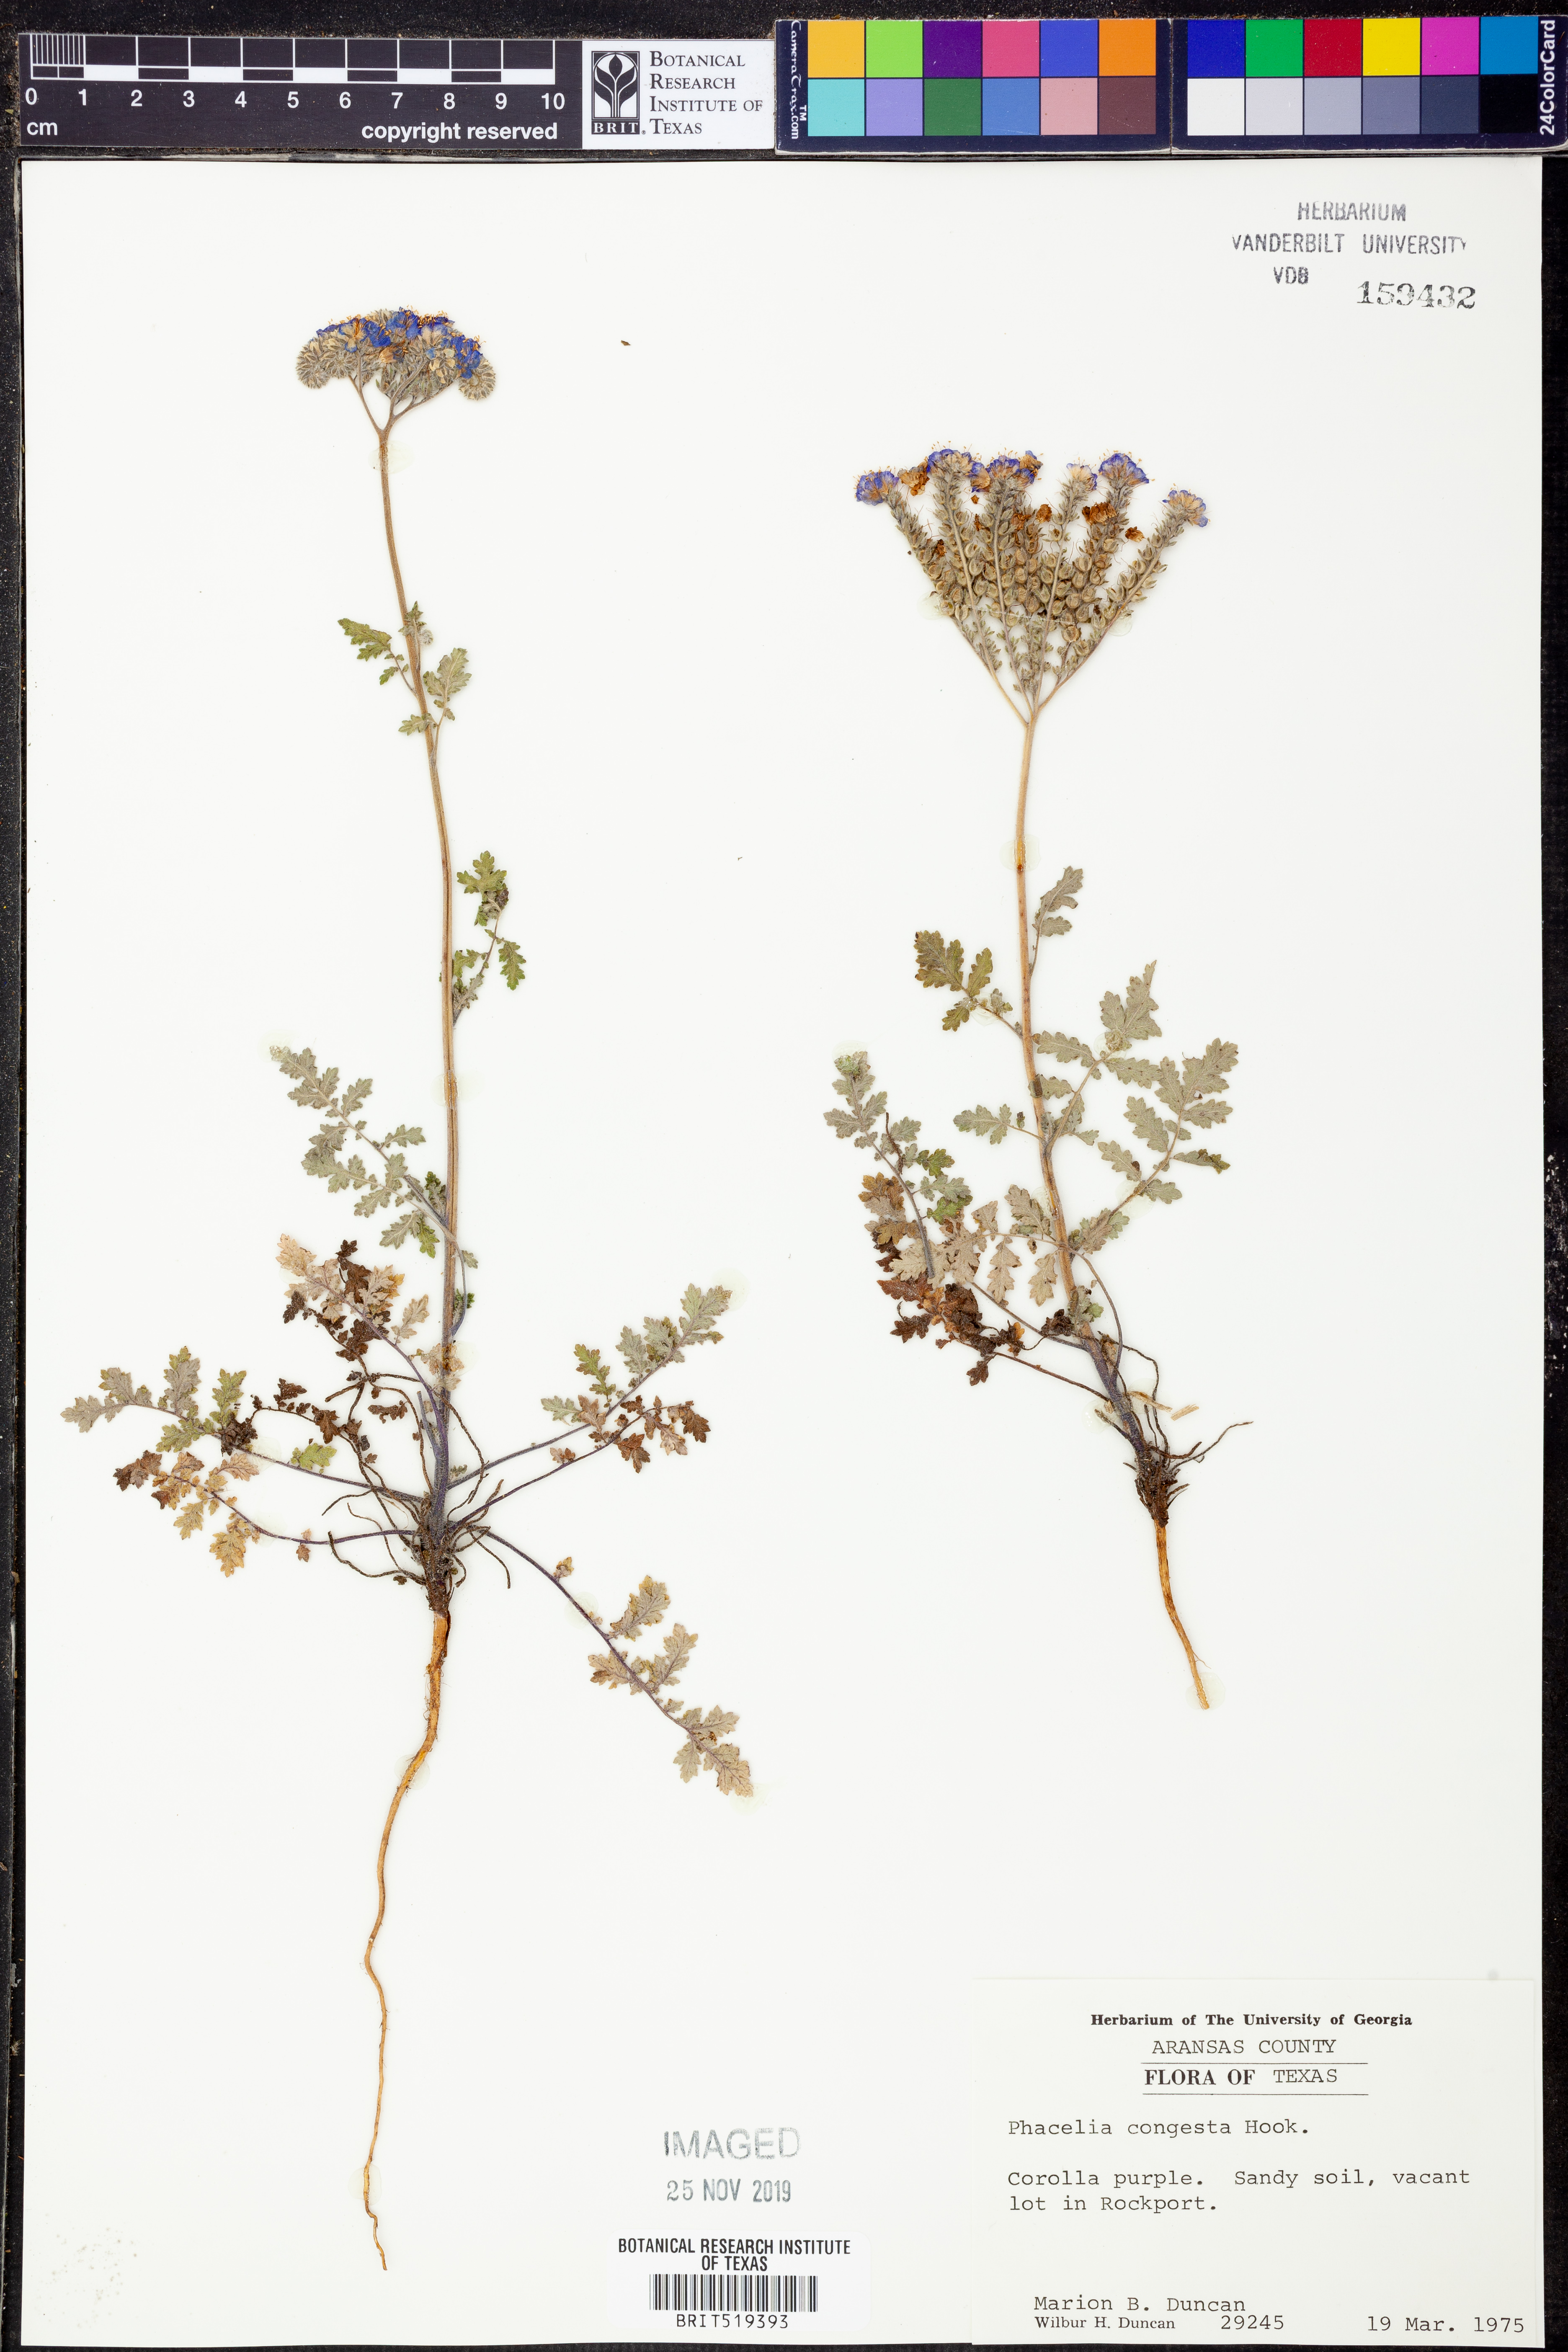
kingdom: Plantae
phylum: Tracheophyta
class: Magnoliopsida
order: Boraginales
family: Hydrophyllaceae
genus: Phacelia
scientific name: Phacelia congesta
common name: Blue curls
